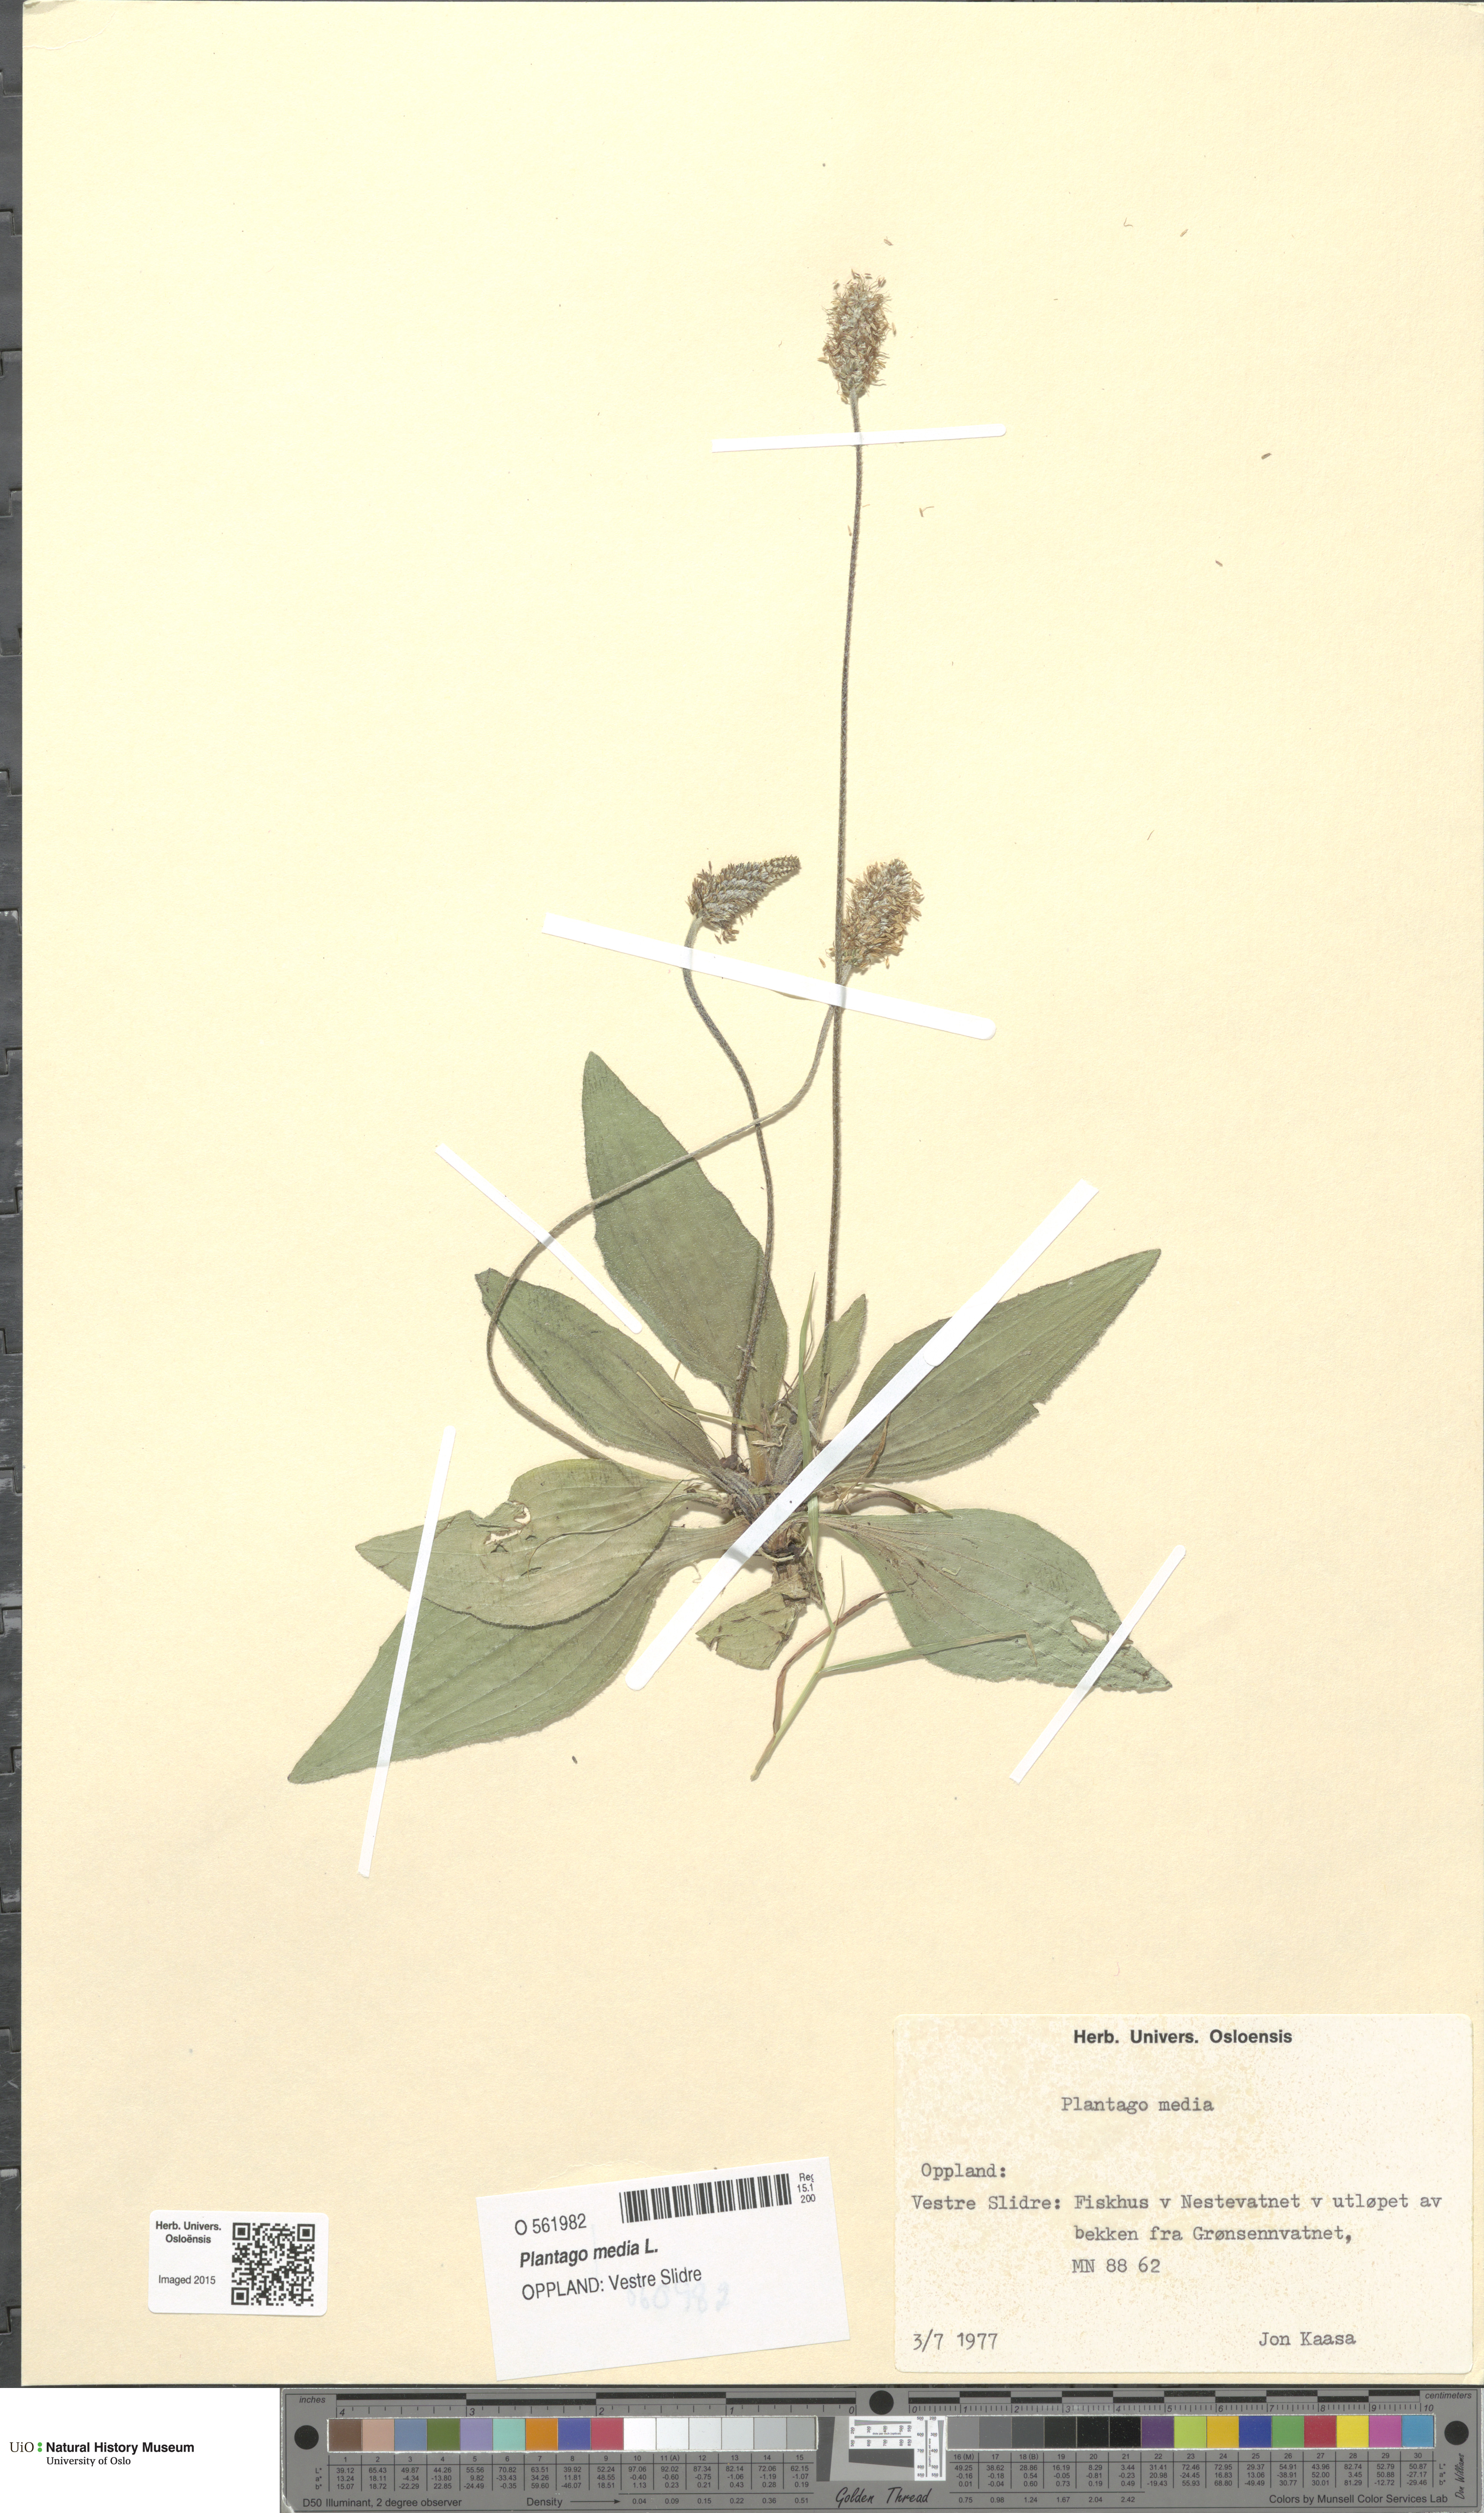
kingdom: Plantae
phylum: Tracheophyta
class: Magnoliopsida
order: Lamiales
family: Plantaginaceae
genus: Plantago
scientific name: Plantago media
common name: Hoary plantain
